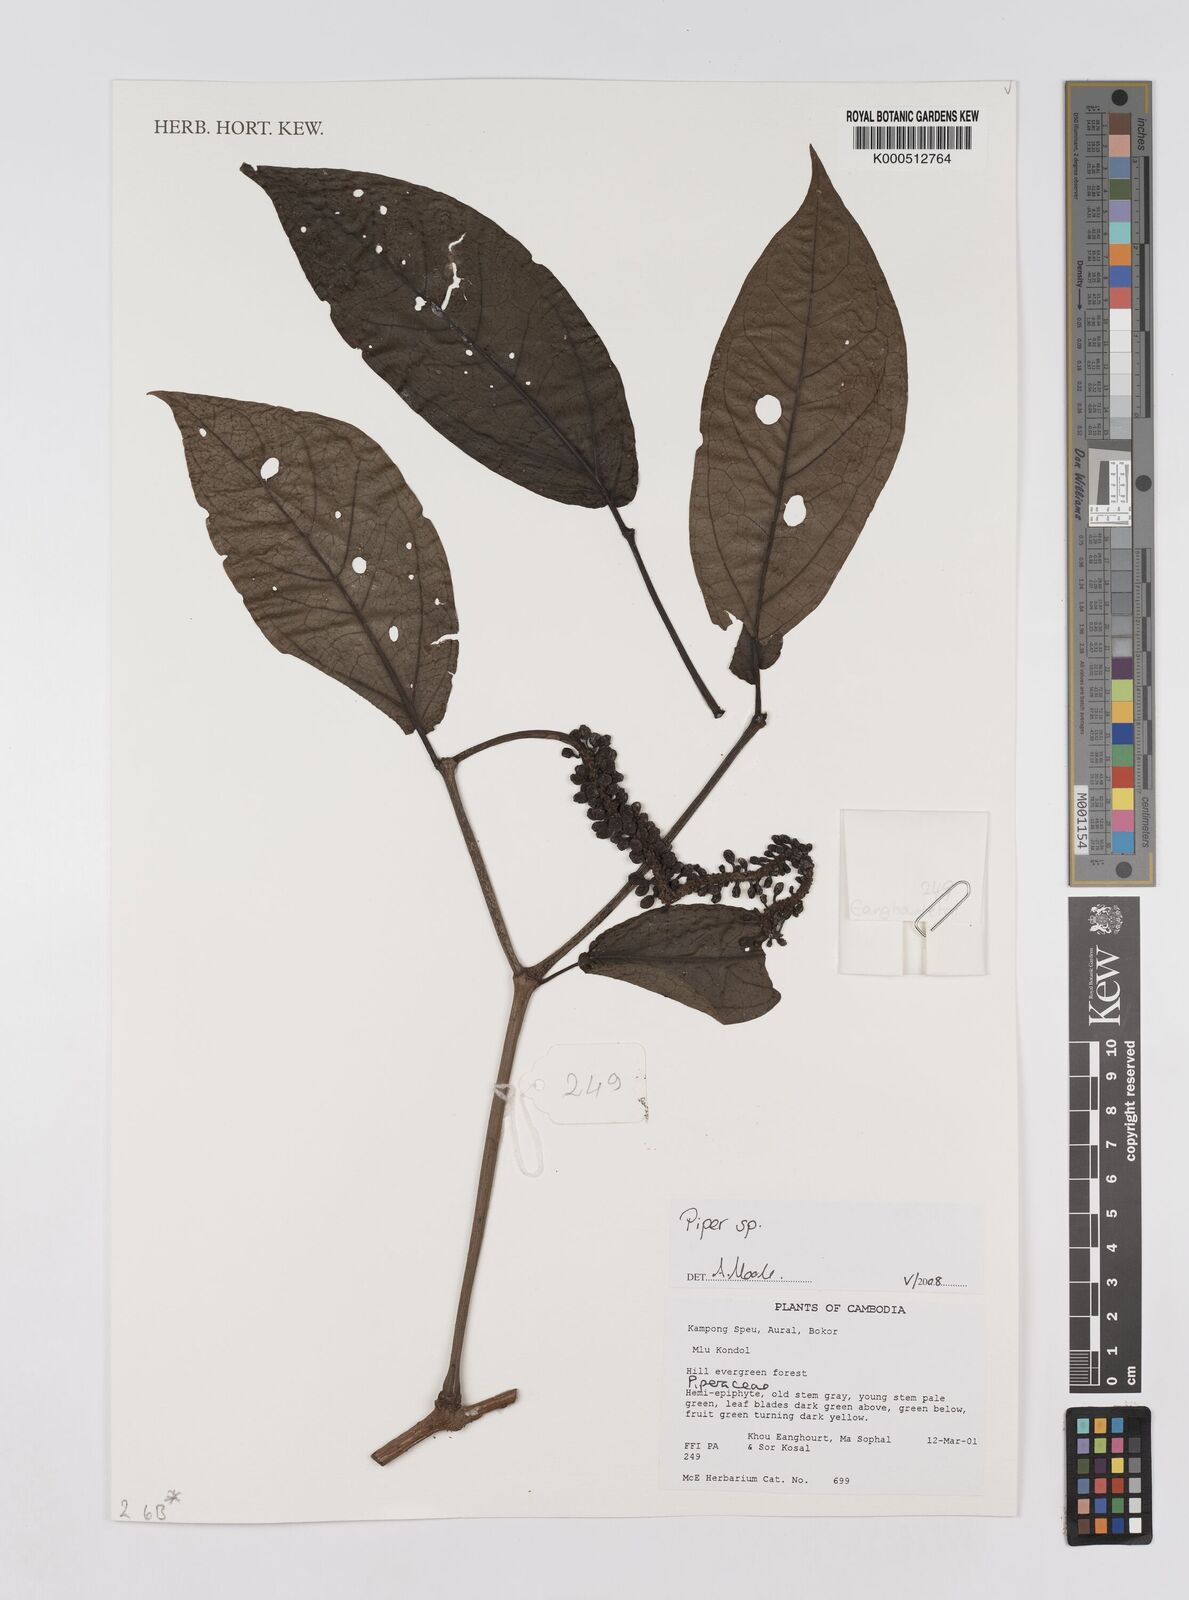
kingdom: Plantae
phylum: Tracheophyta
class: Magnoliopsida
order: Piperales
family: Piperaceae
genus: Piper
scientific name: Piper
